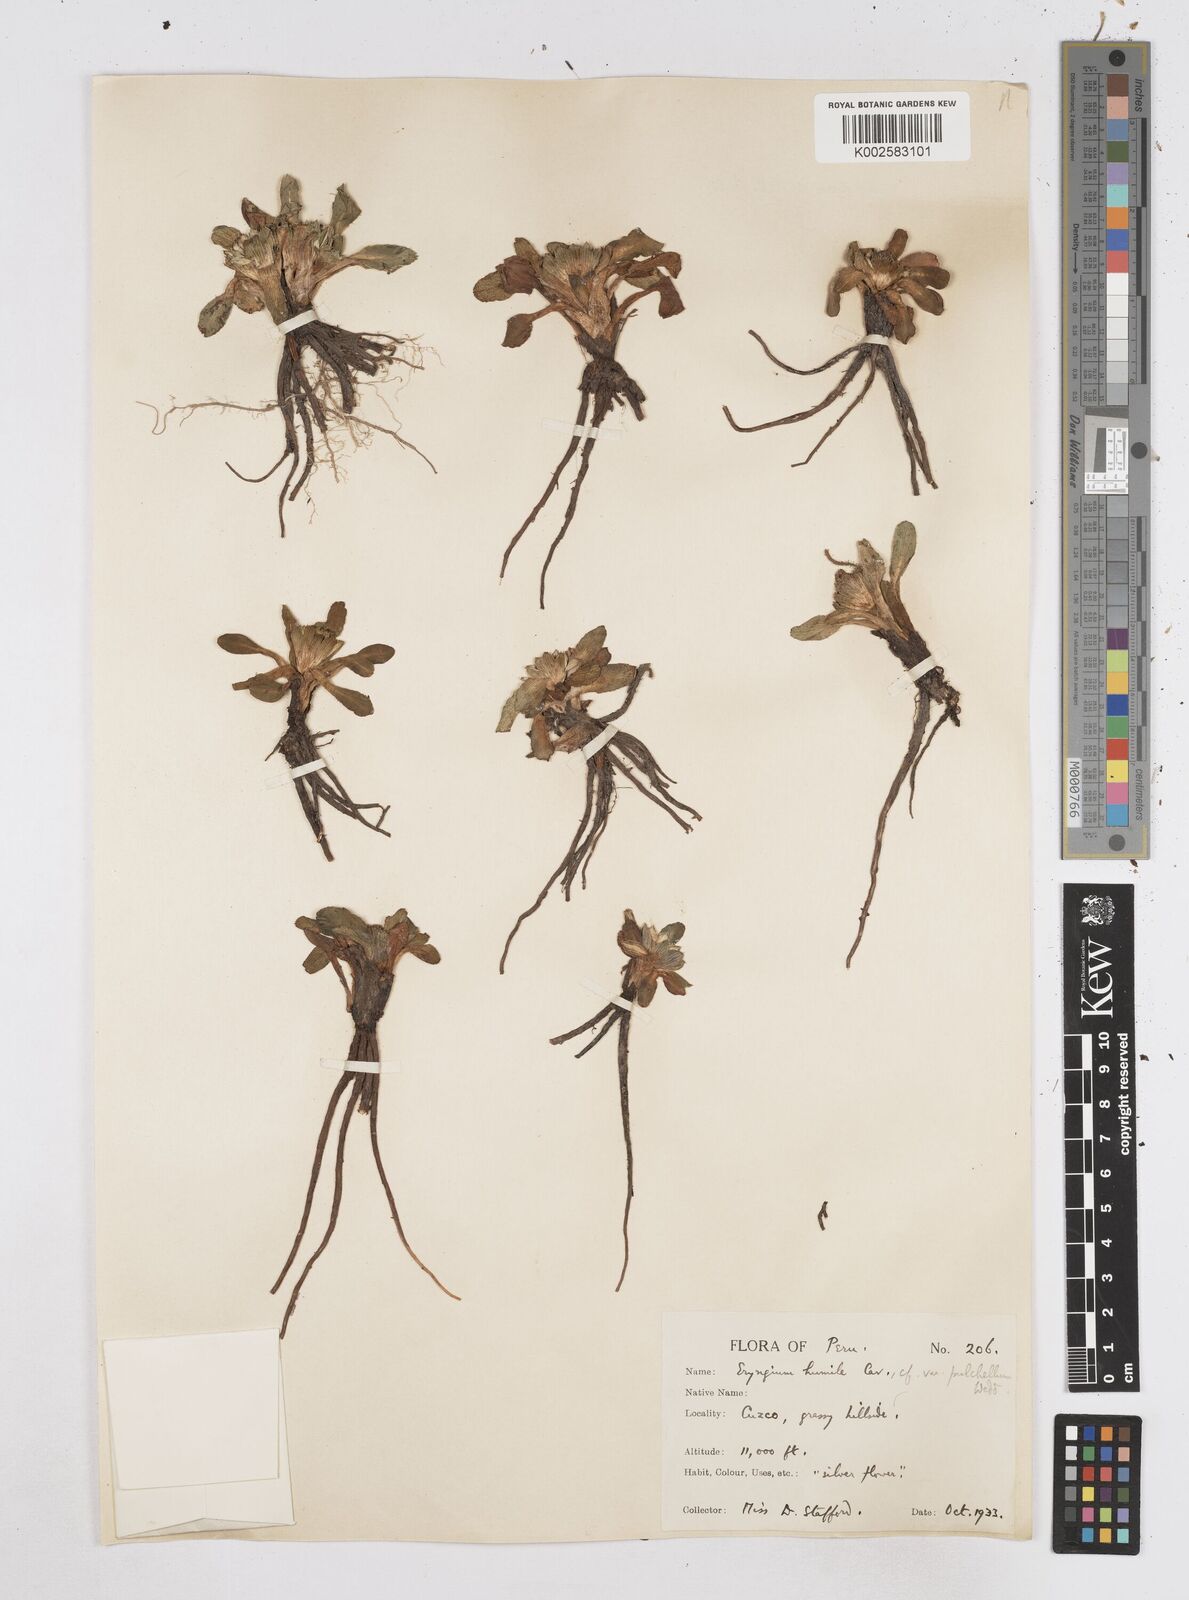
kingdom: Plantae
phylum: Tracheophyta
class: Magnoliopsida
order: Apiales
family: Apiaceae
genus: Eryngium
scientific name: Eryngium humile
